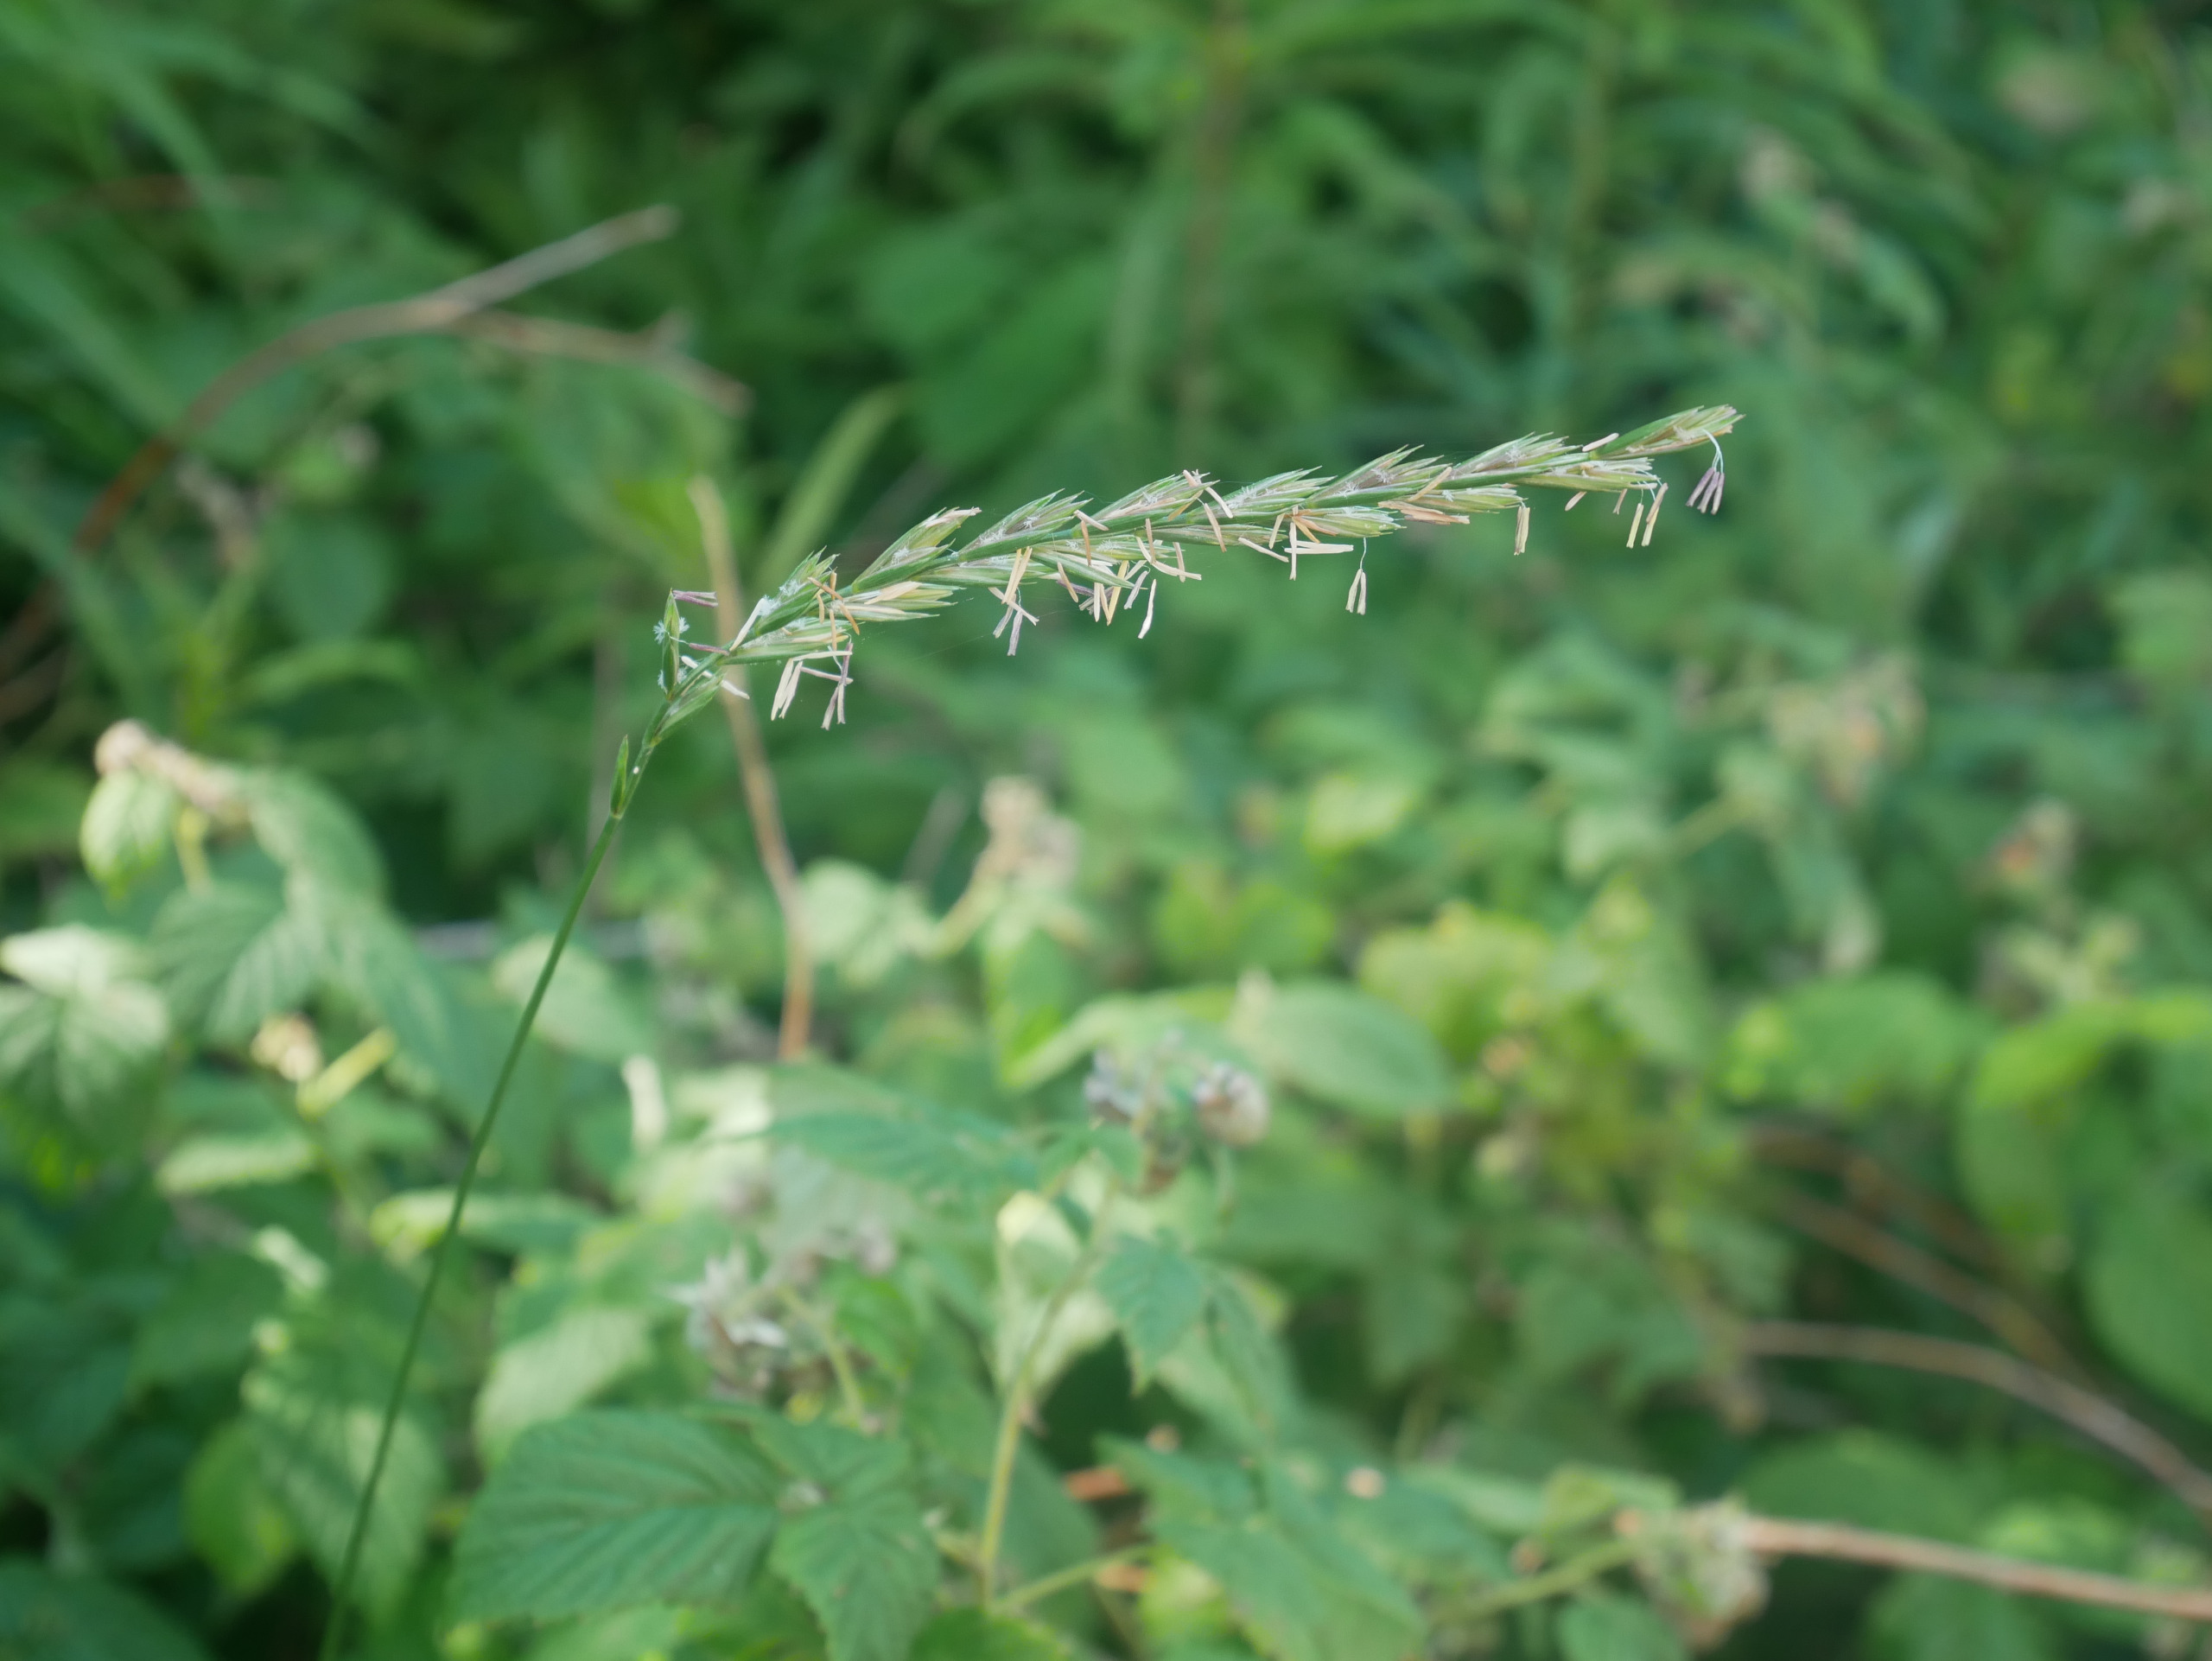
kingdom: Plantae
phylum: Tracheophyta
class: Liliopsida
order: Poales
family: Poaceae
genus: Elymus
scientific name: Elymus repens
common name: Almindelig kvik
